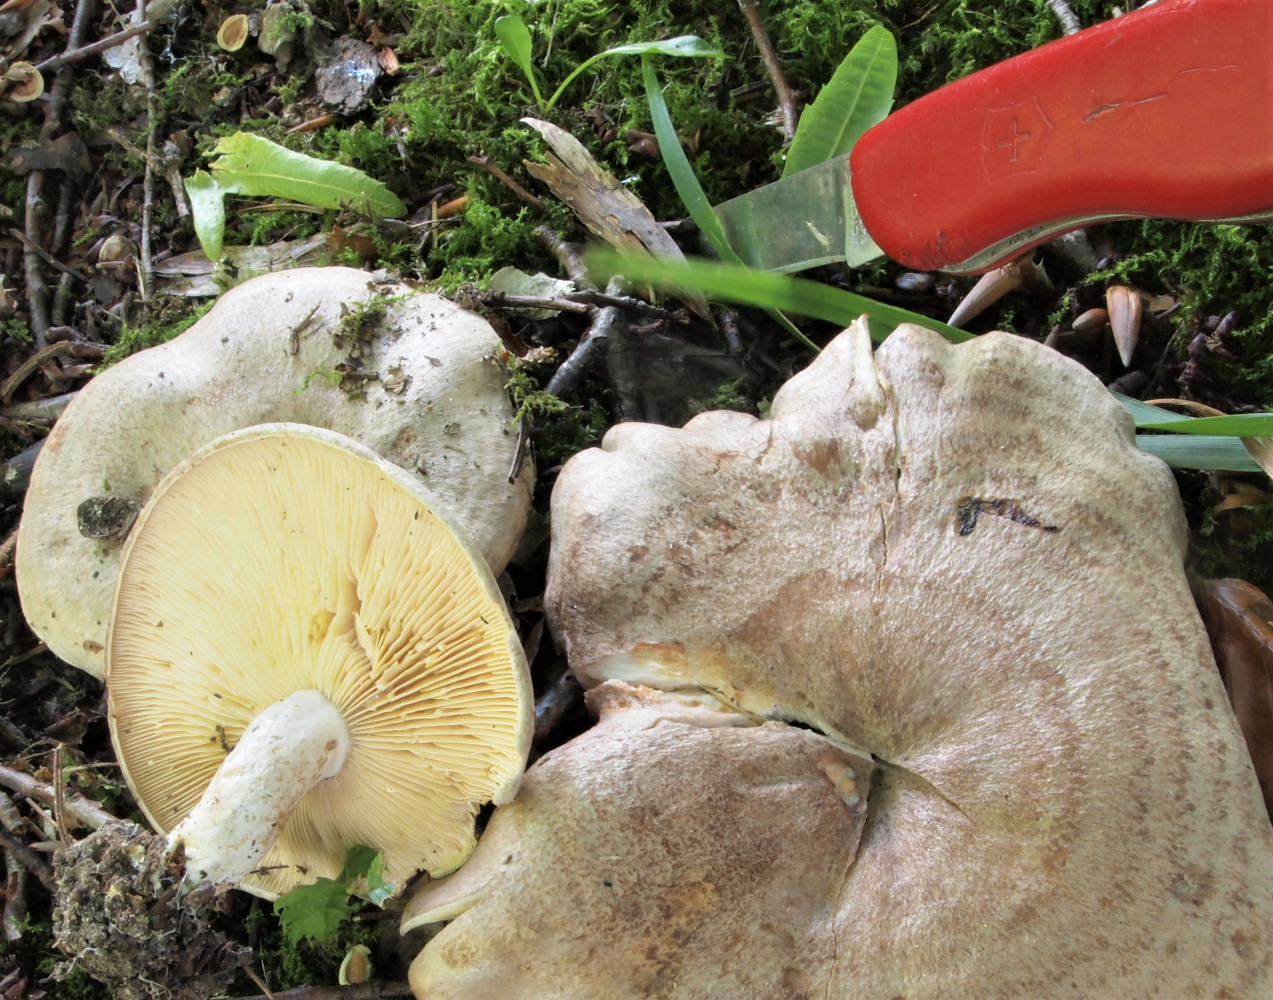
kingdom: Fungi
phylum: Basidiomycota
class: Agaricomycetes
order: Russulales
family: Russulaceae
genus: Lactarius
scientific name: Lactarius circellatus
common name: avnbøg-mælkehat
